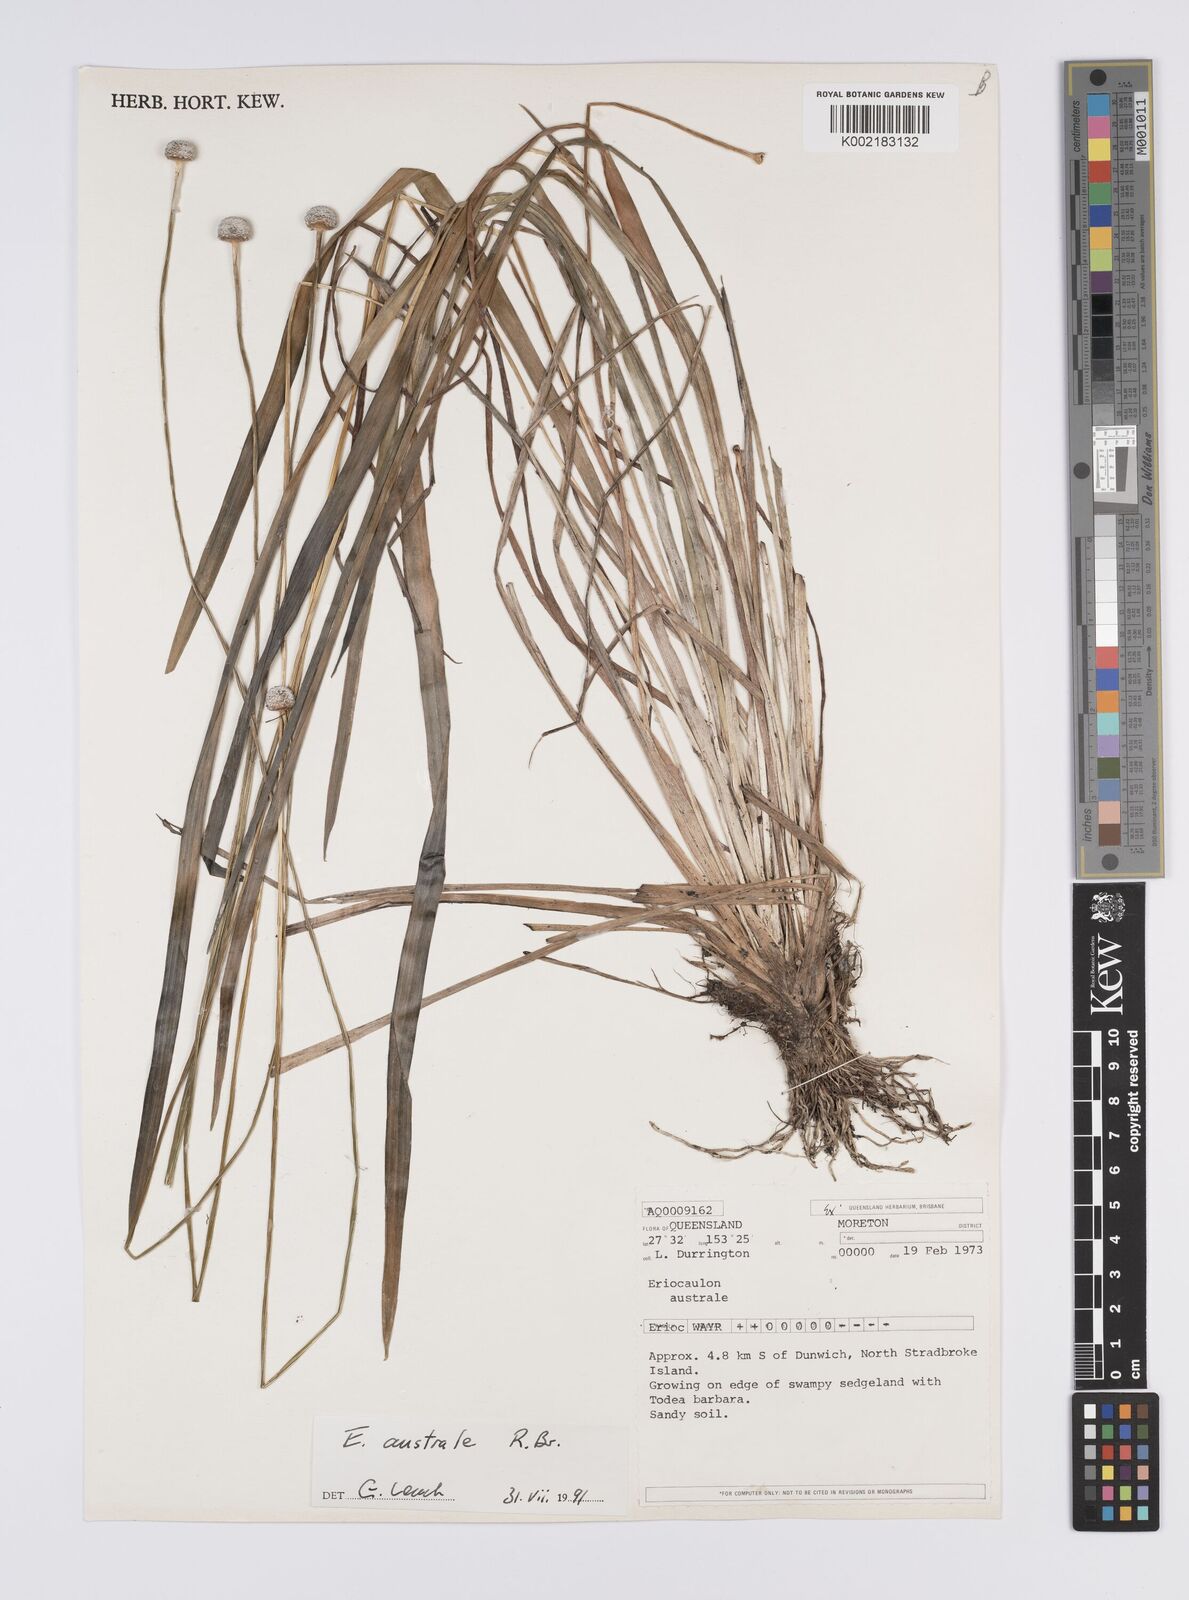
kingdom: Plantae
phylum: Tracheophyta
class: Liliopsida
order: Poales
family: Eriocaulaceae
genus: Eriocaulon
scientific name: Eriocaulon australe
